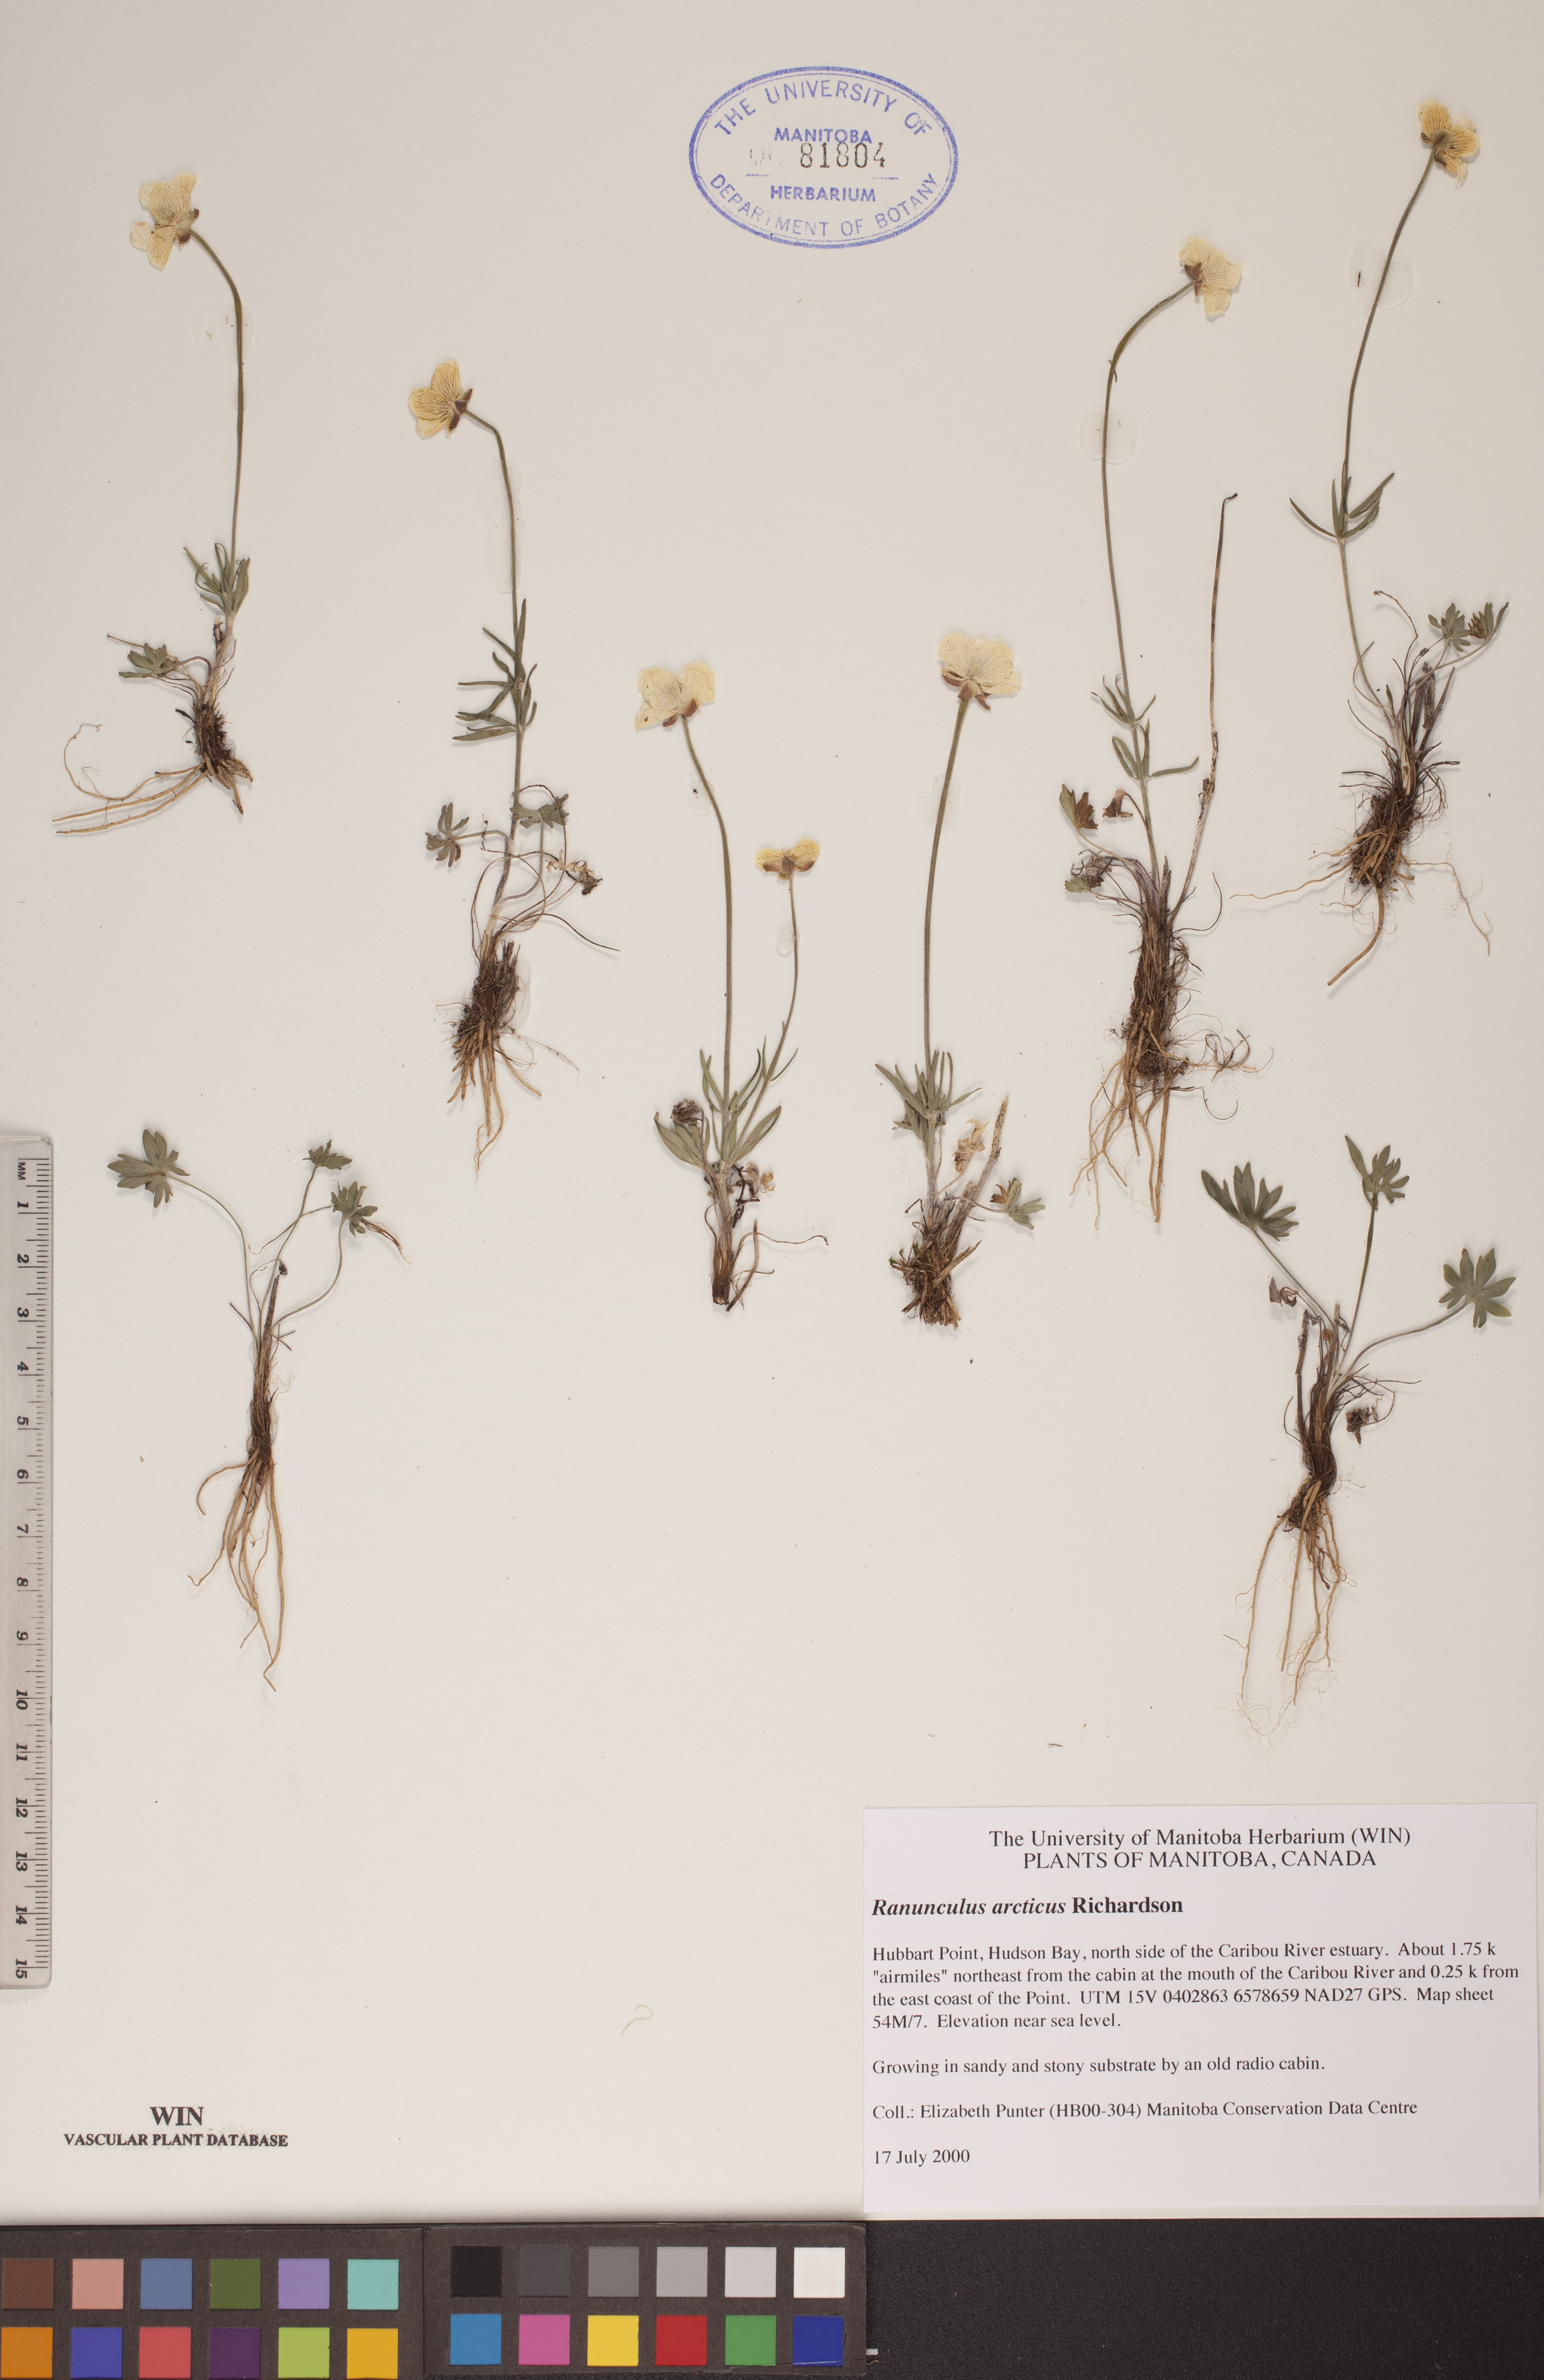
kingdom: Plantae
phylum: Tracheophyta
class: Magnoliopsida
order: Ranunculales
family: Ranunculaceae
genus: Ranunculus
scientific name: Ranunculus arcticus
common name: Bird's-foot buttercup
